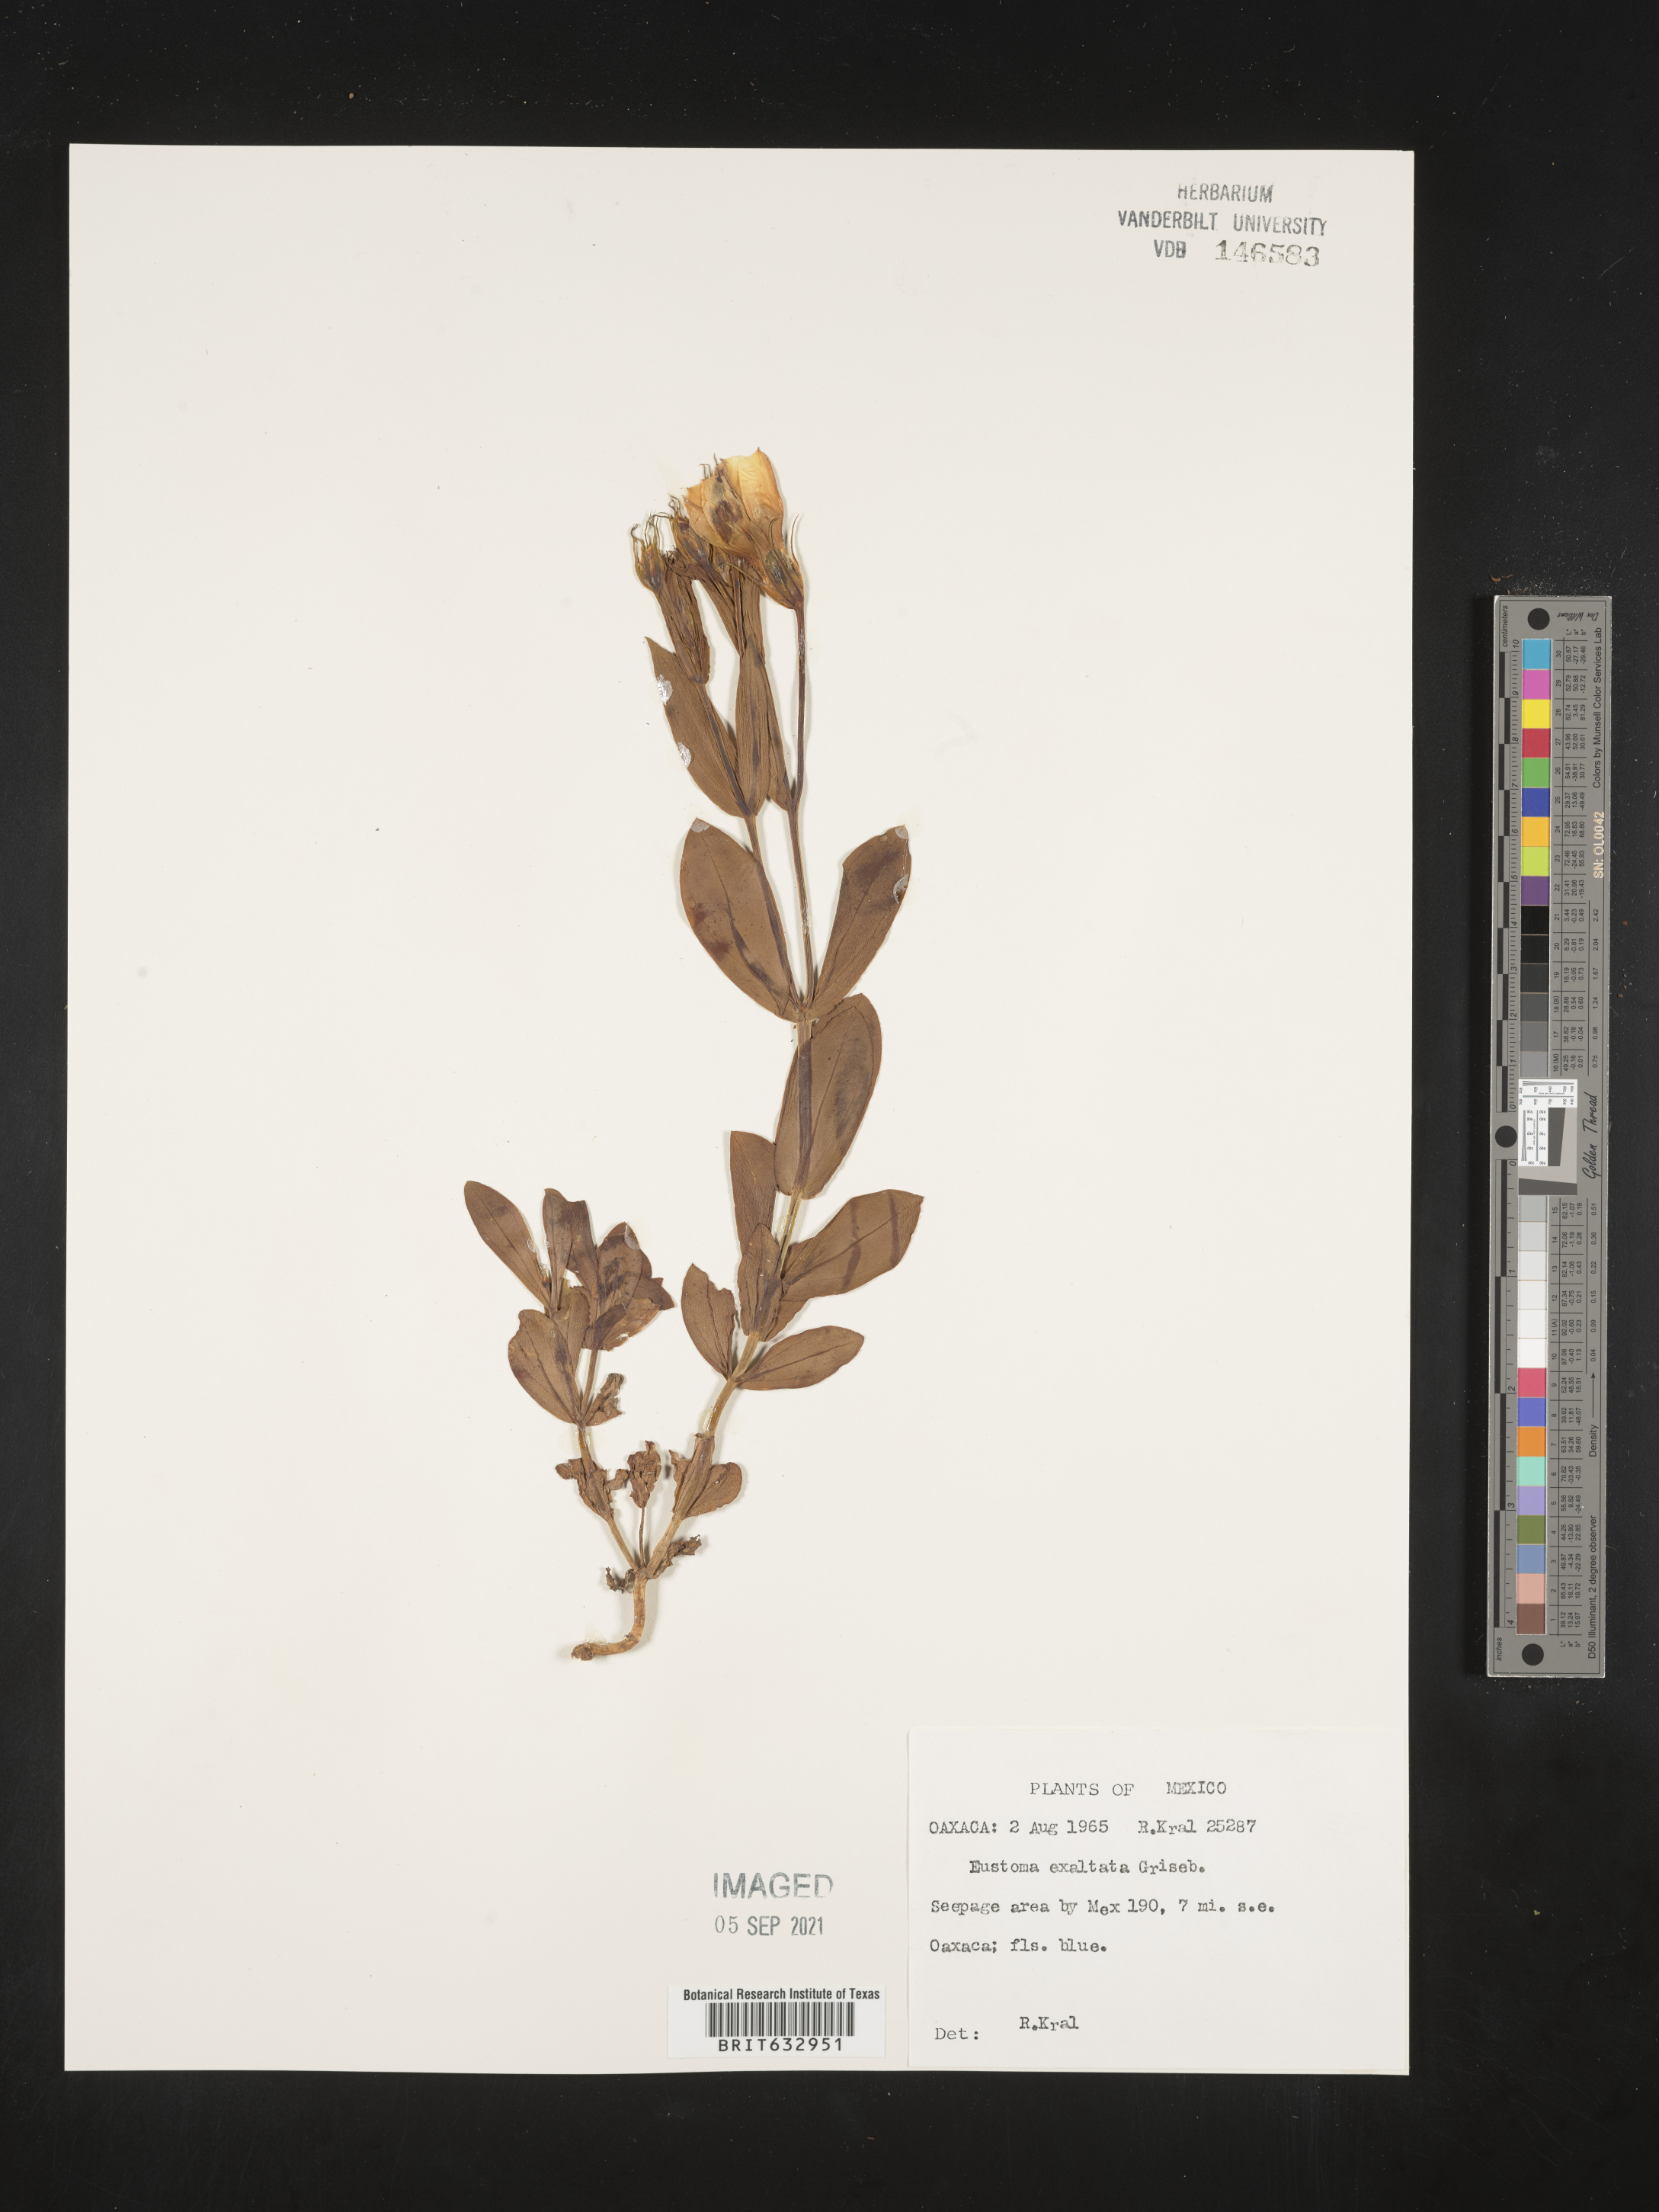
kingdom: Plantae
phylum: Tracheophyta
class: Magnoliopsida
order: Gentianales
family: Gentianaceae
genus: Eustoma
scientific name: Eustoma
